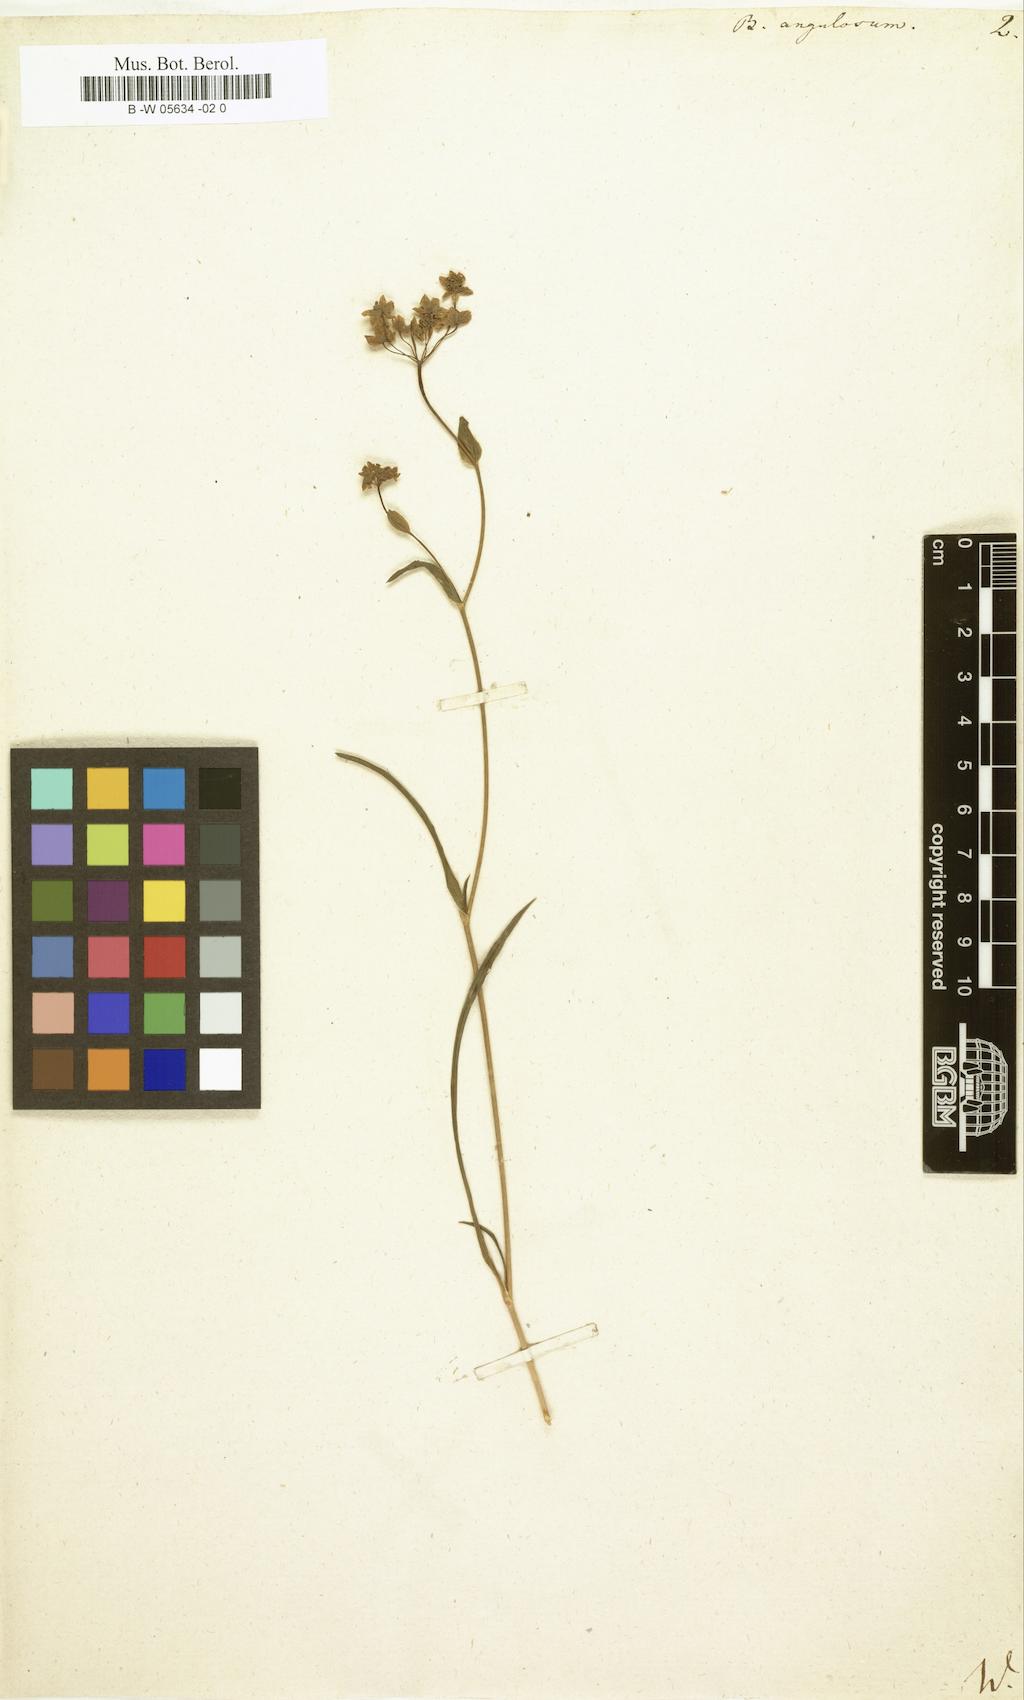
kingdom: Plantae
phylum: Tracheophyta
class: Magnoliopsida
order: Apiales
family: Apiaceae
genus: Bupleurum
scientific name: Bupleurum angulosum
